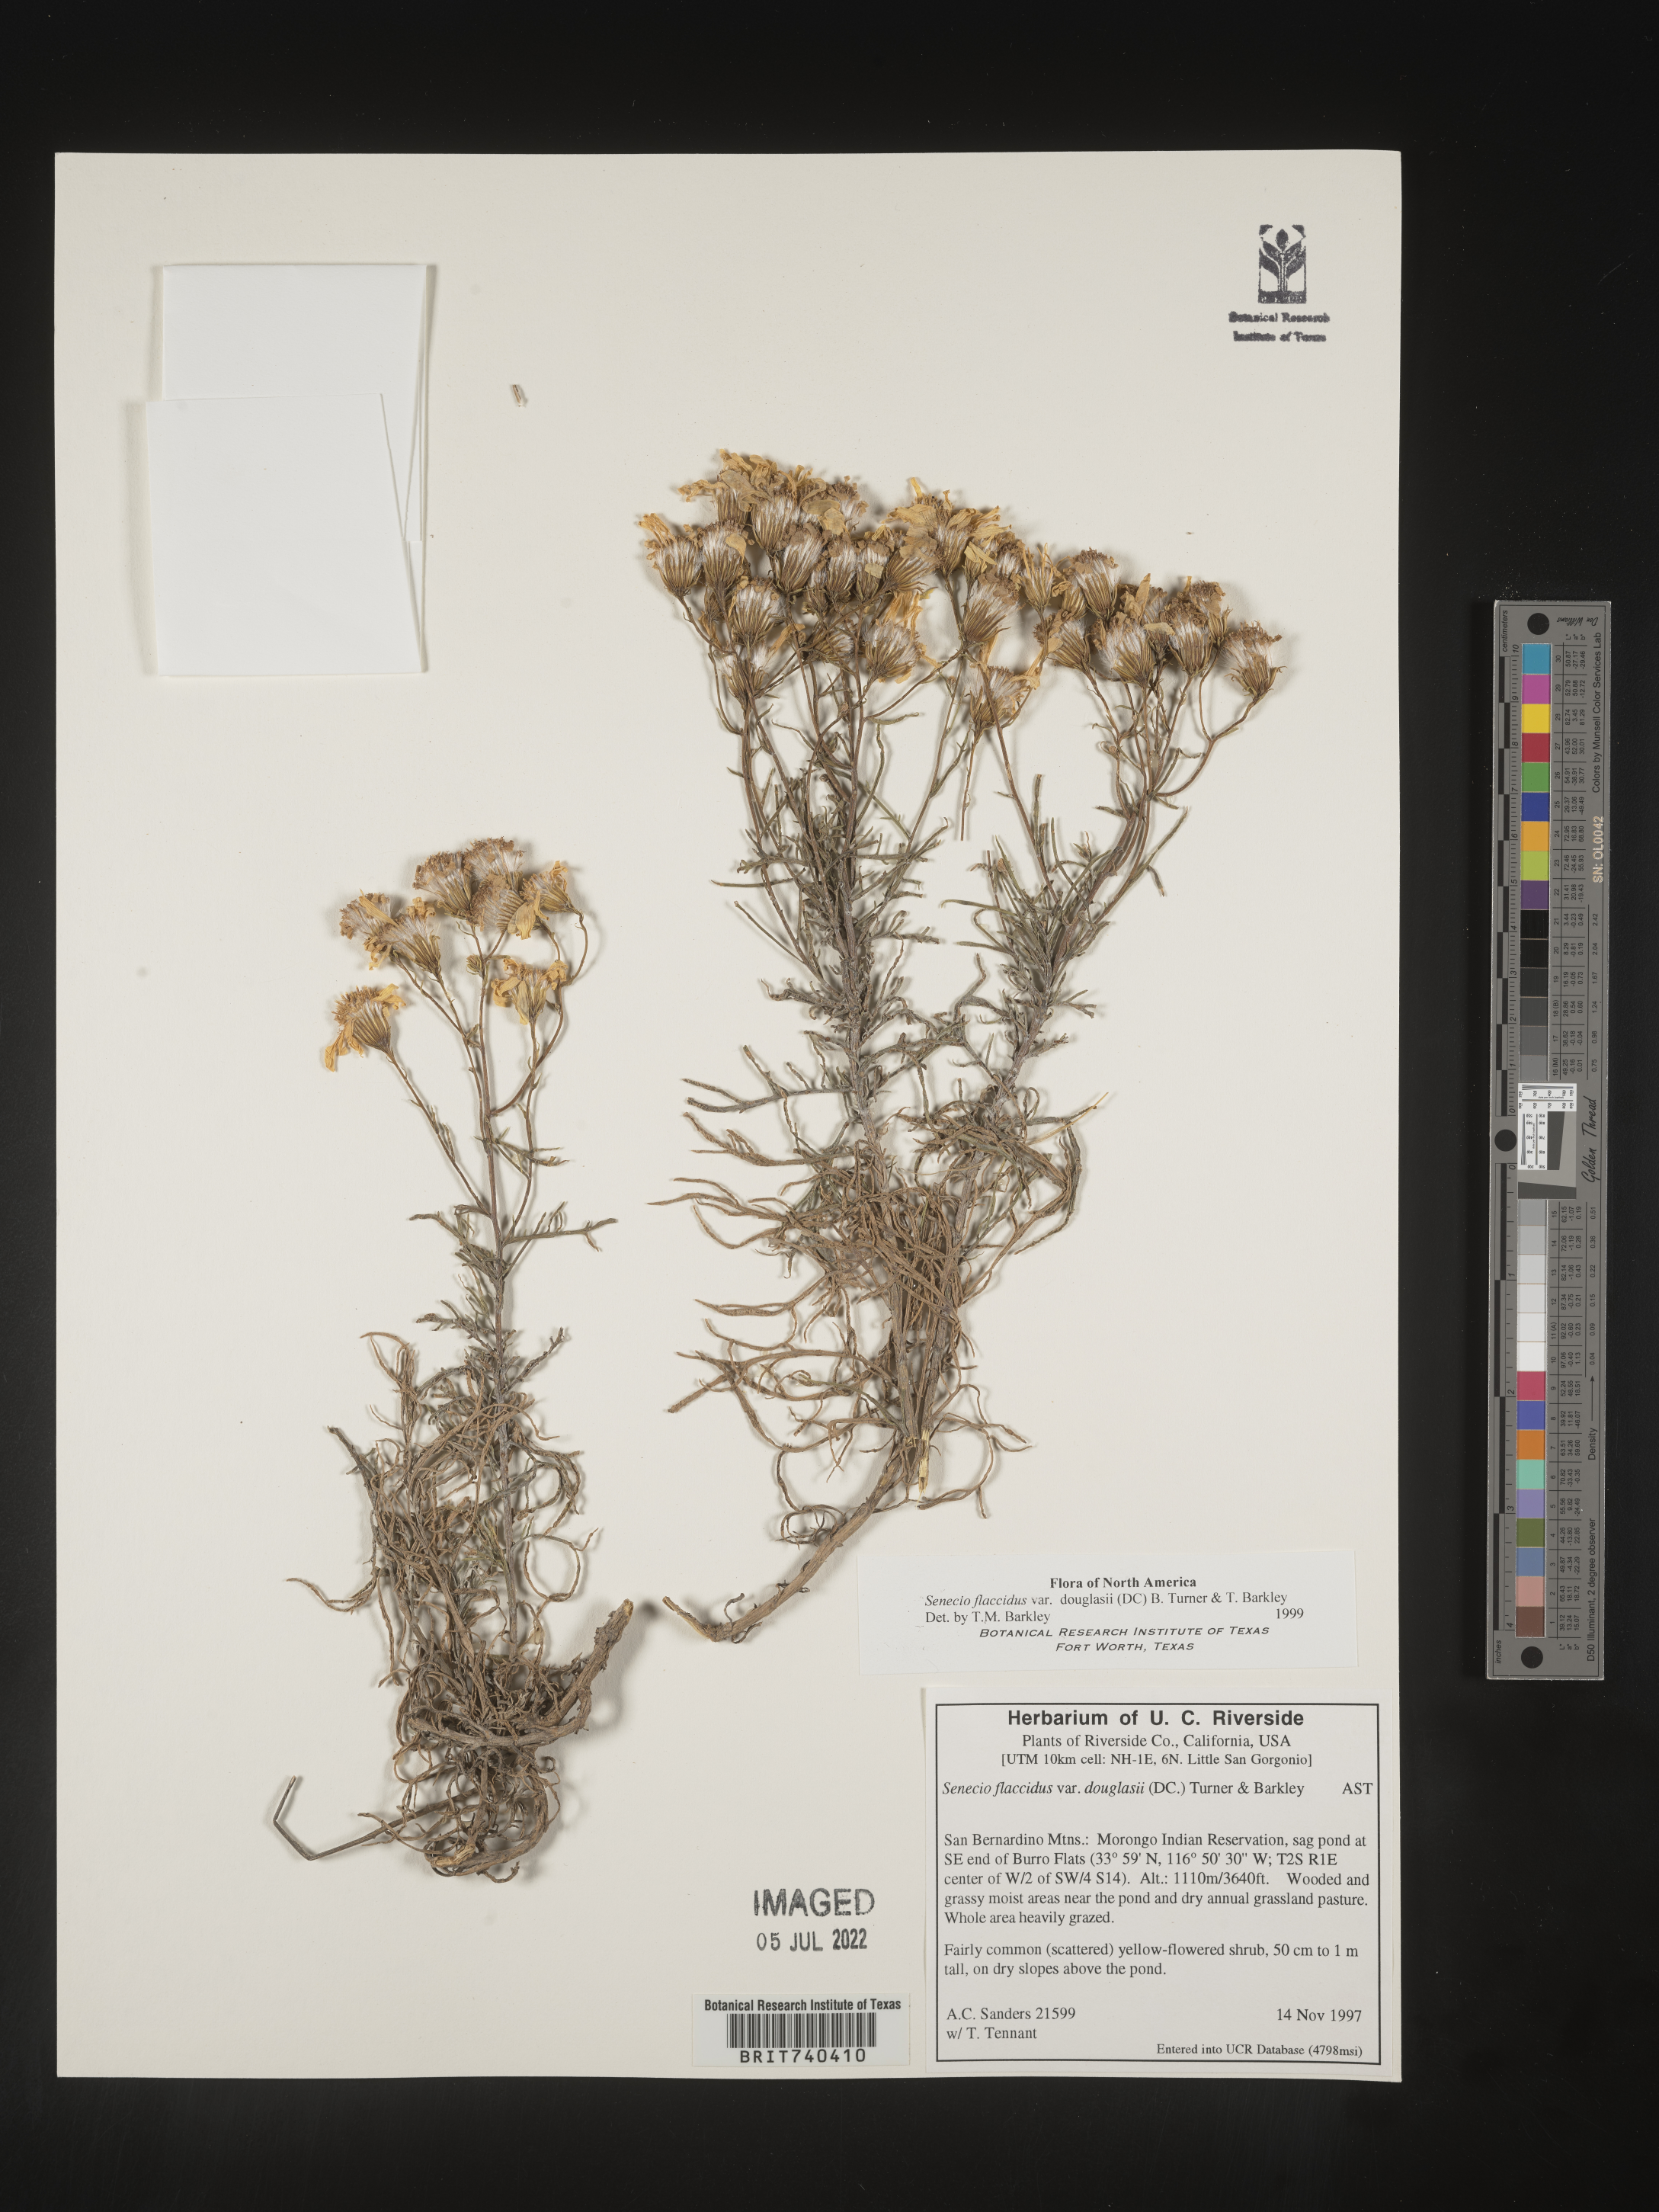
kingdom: Plantae
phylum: Tracheophyta
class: Magnoliopsida
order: Asterales
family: Asteraceae
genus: Senecio
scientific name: Senecio flaccidus
